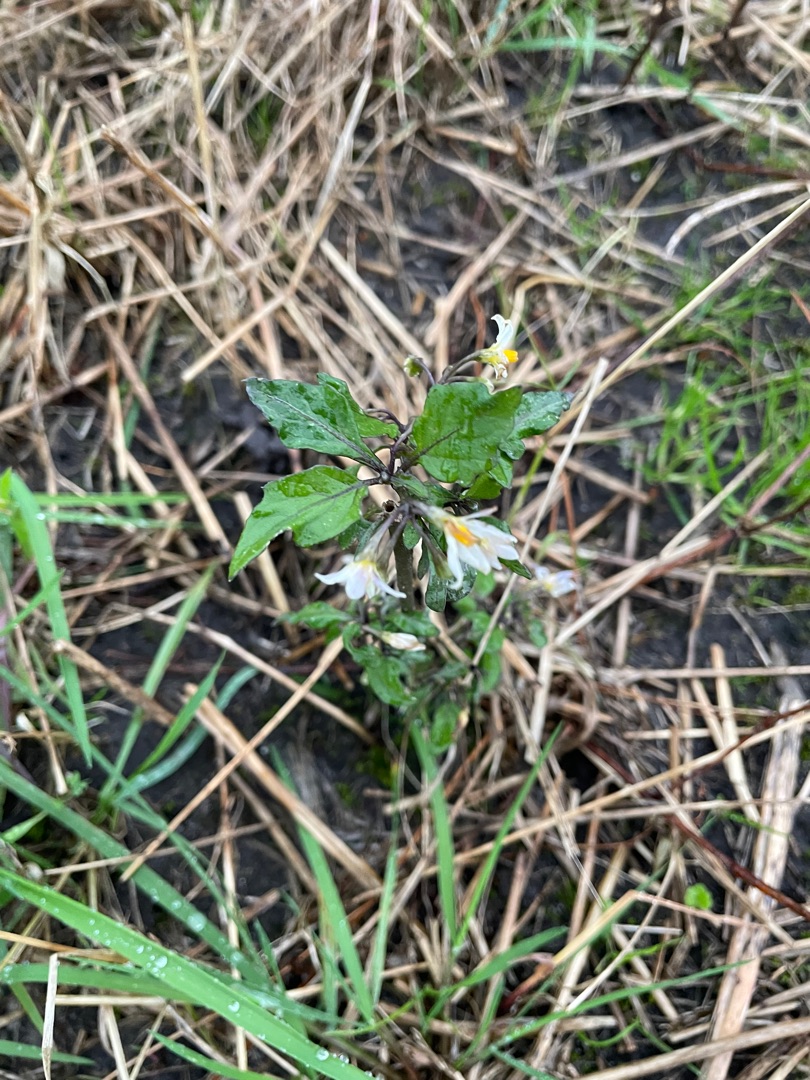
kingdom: Plantae
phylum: Tracheophyta
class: Magnoliopsida
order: Solanales
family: Solanaceae
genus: Solanum
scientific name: Solanum nigrum
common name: Sort natskygge (underart)
